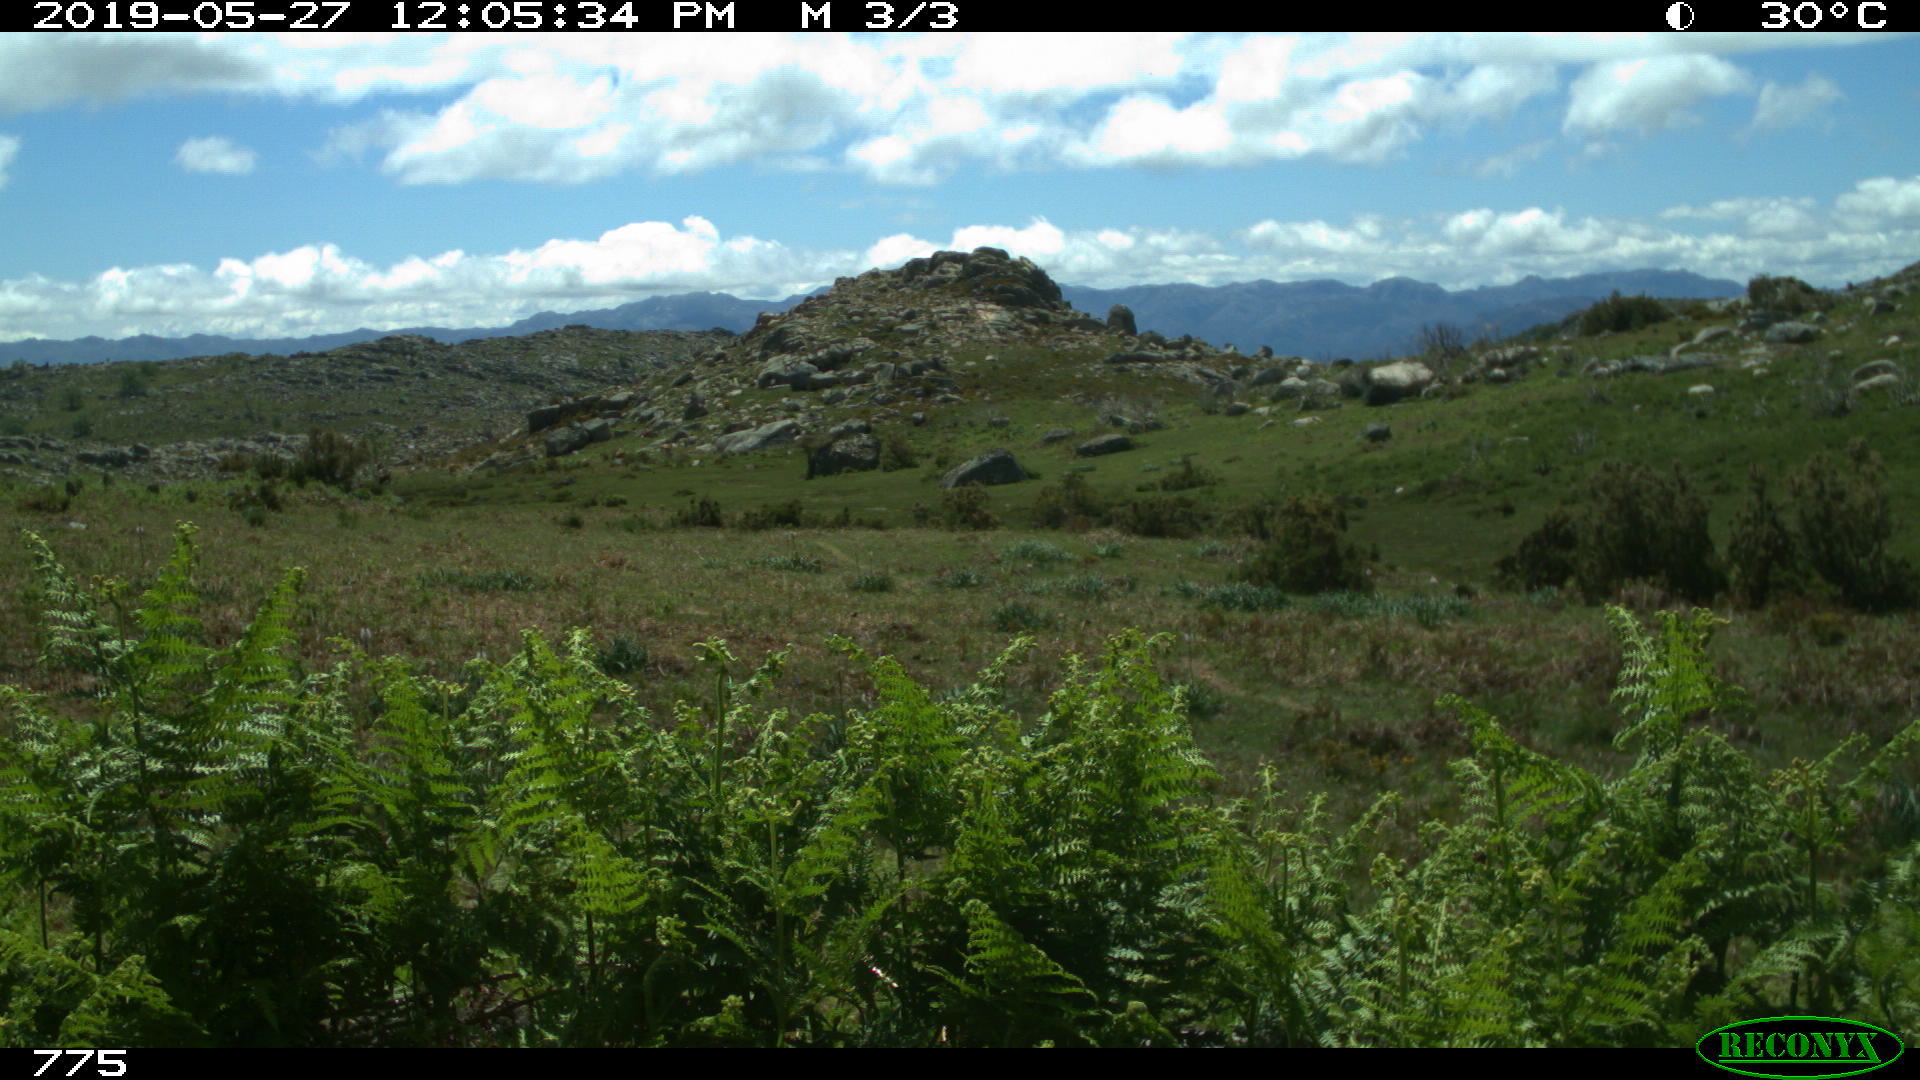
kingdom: Animalia
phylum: Chordata
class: Mammalia
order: Perissodactyla
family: Equidae
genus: Equus
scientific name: Equus caballus
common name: Horse
